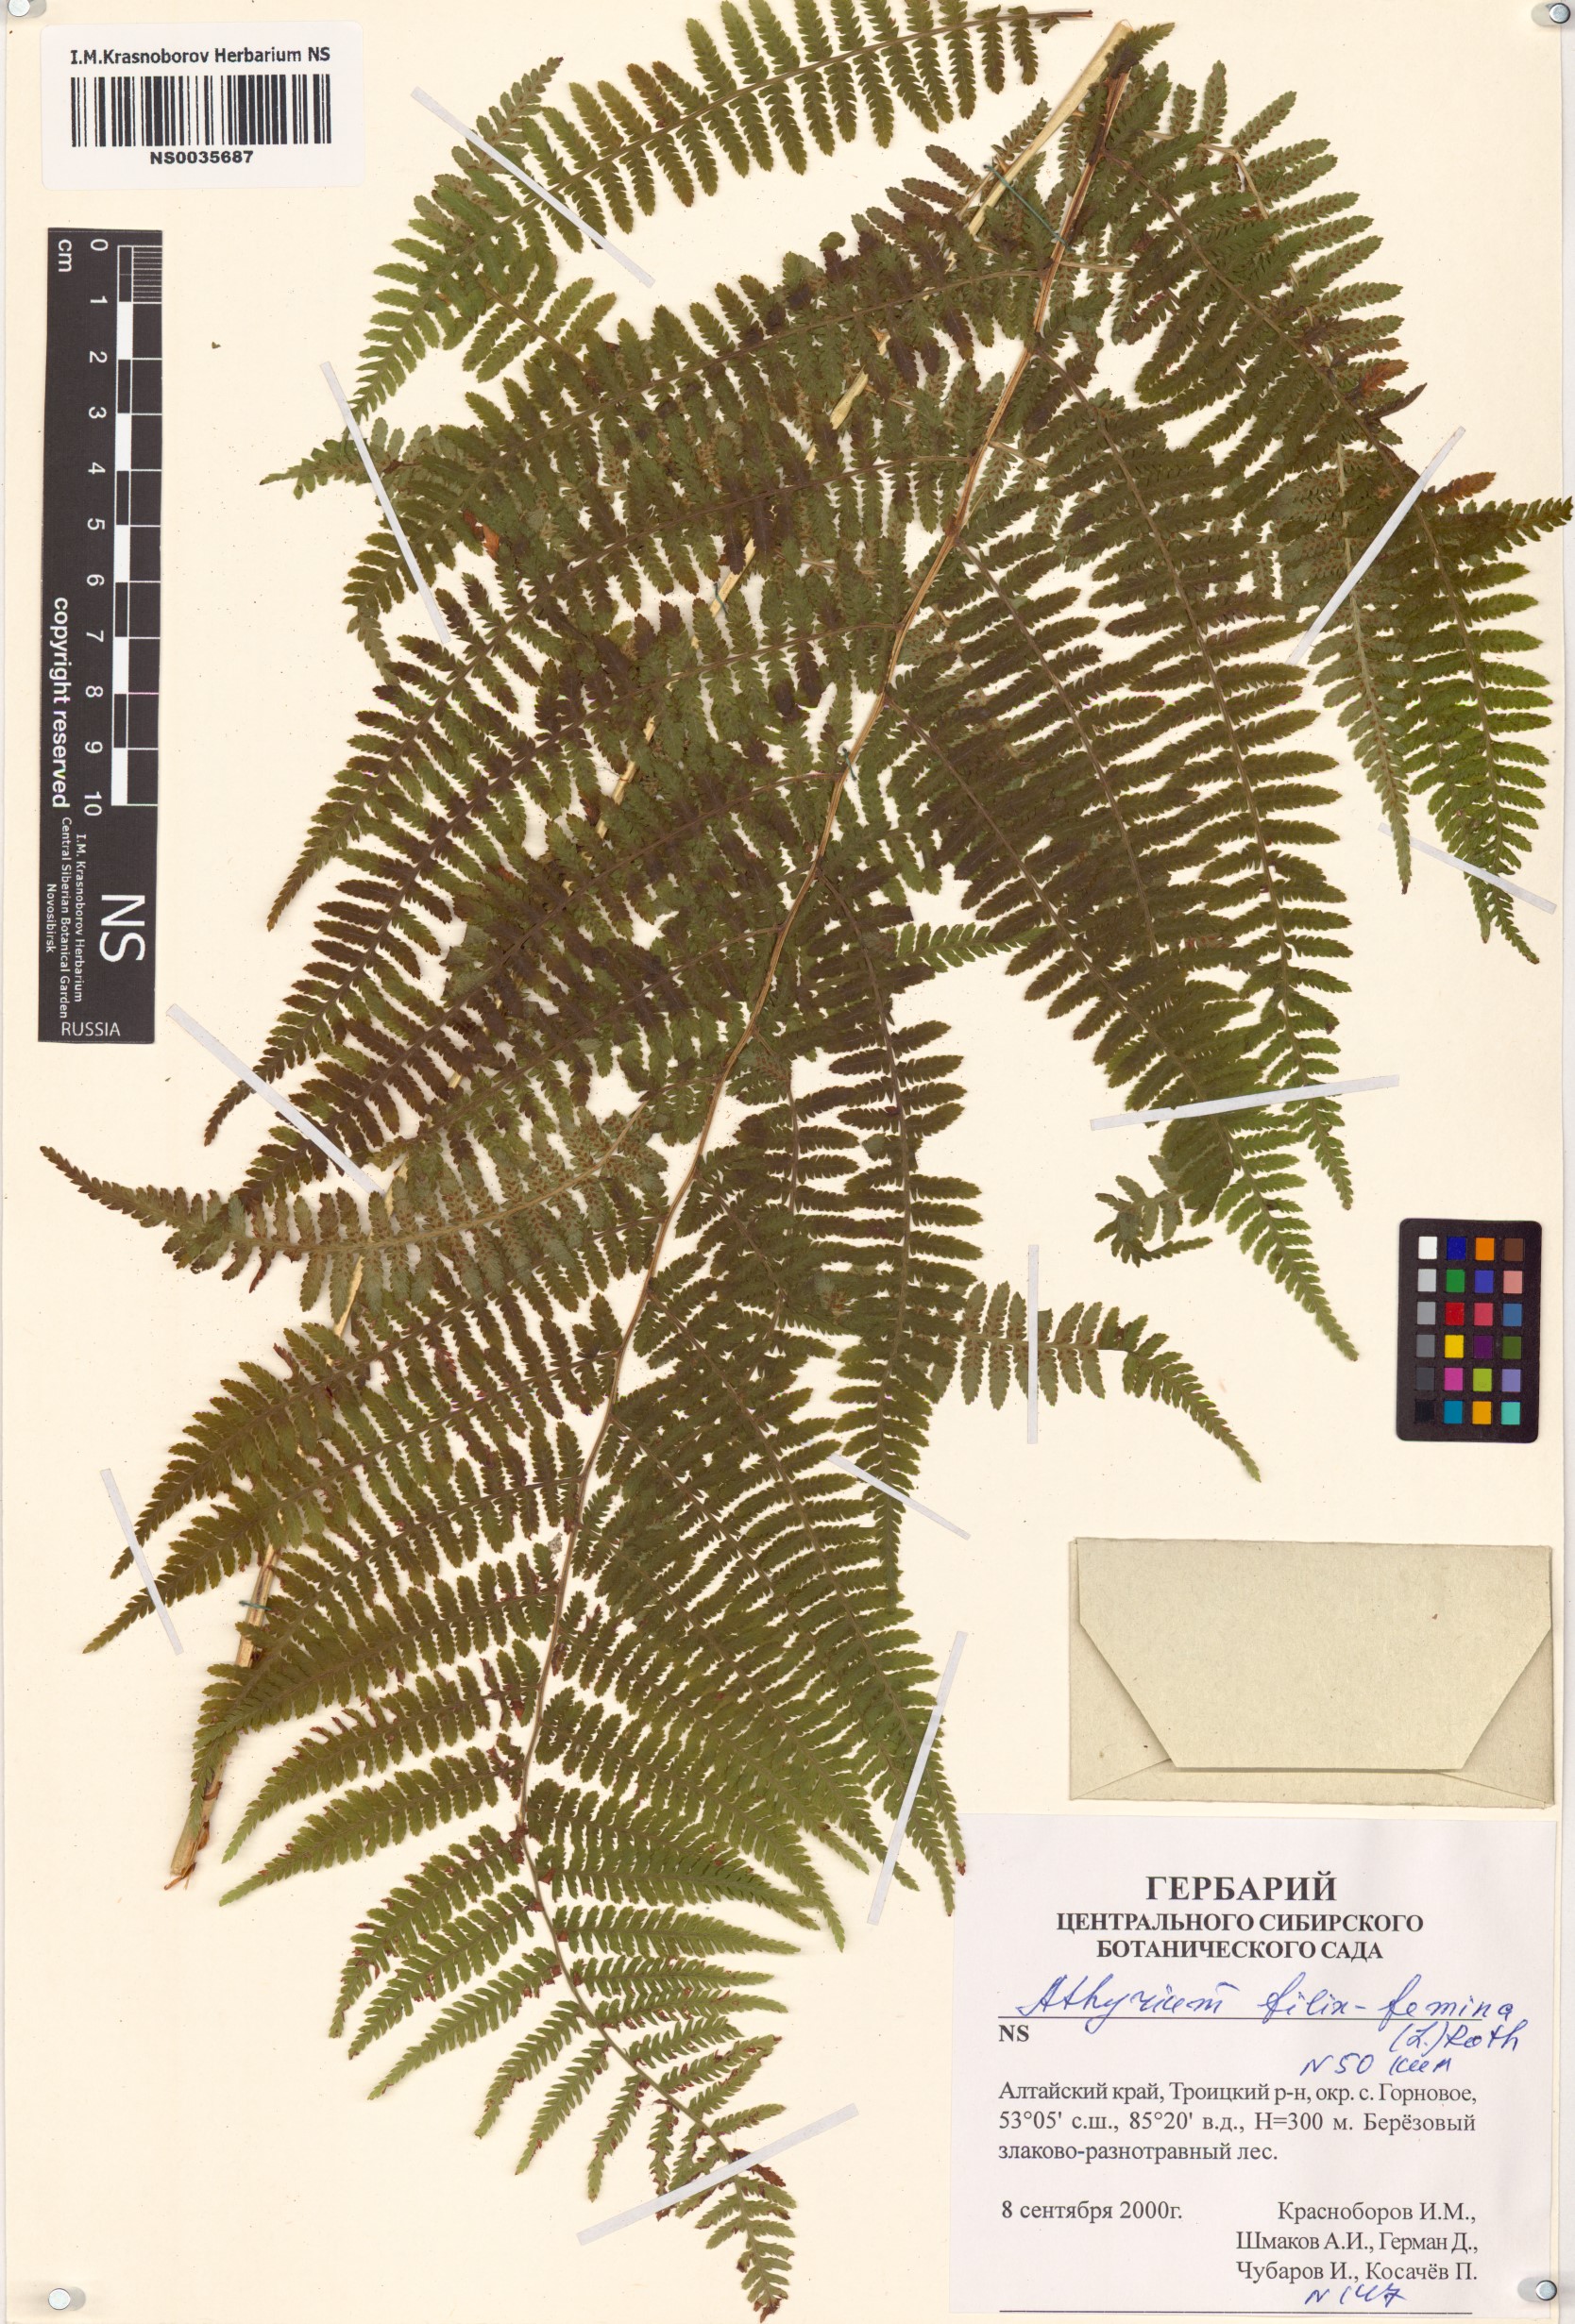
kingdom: Plantae
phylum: Tracheophyta
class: Polypodiopsida
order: Polypodiales
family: Athyriaceae
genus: Athyrium
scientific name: Athyrium filix-femina
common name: Lady fern
